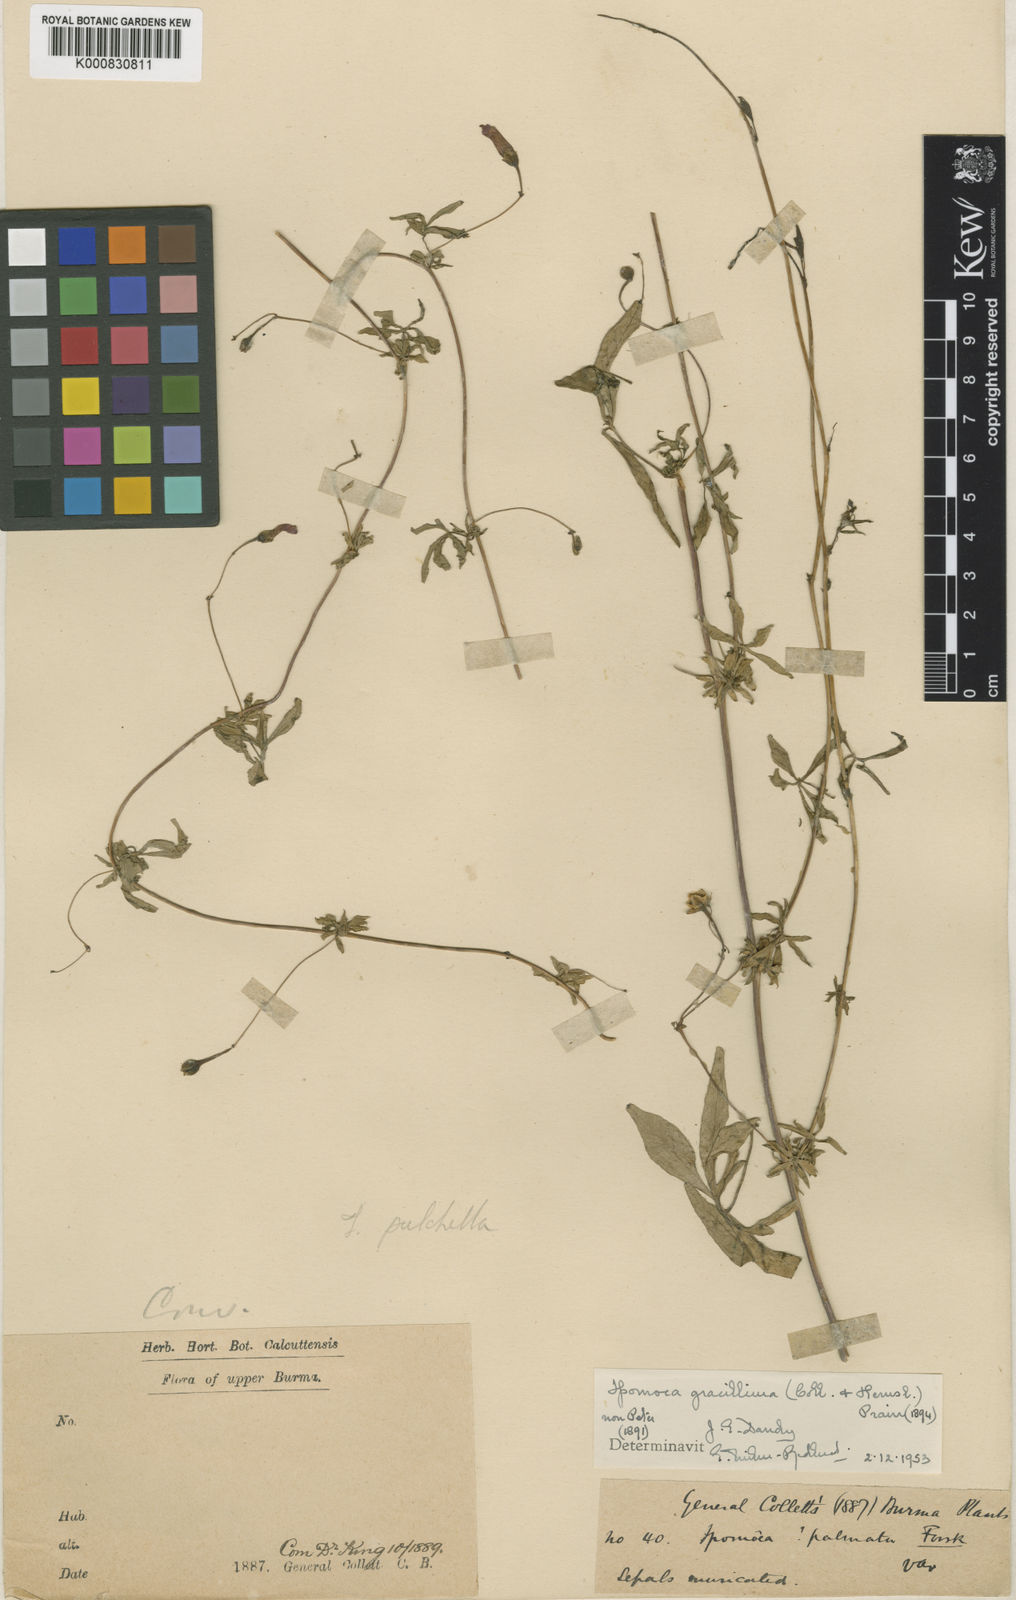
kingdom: Plantae
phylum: Tracheophyta
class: Magnoliopsida
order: Solanales
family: Convolvulaceae
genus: Ipomoea
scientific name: Ipomoea cairica
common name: Mile a minute vine
